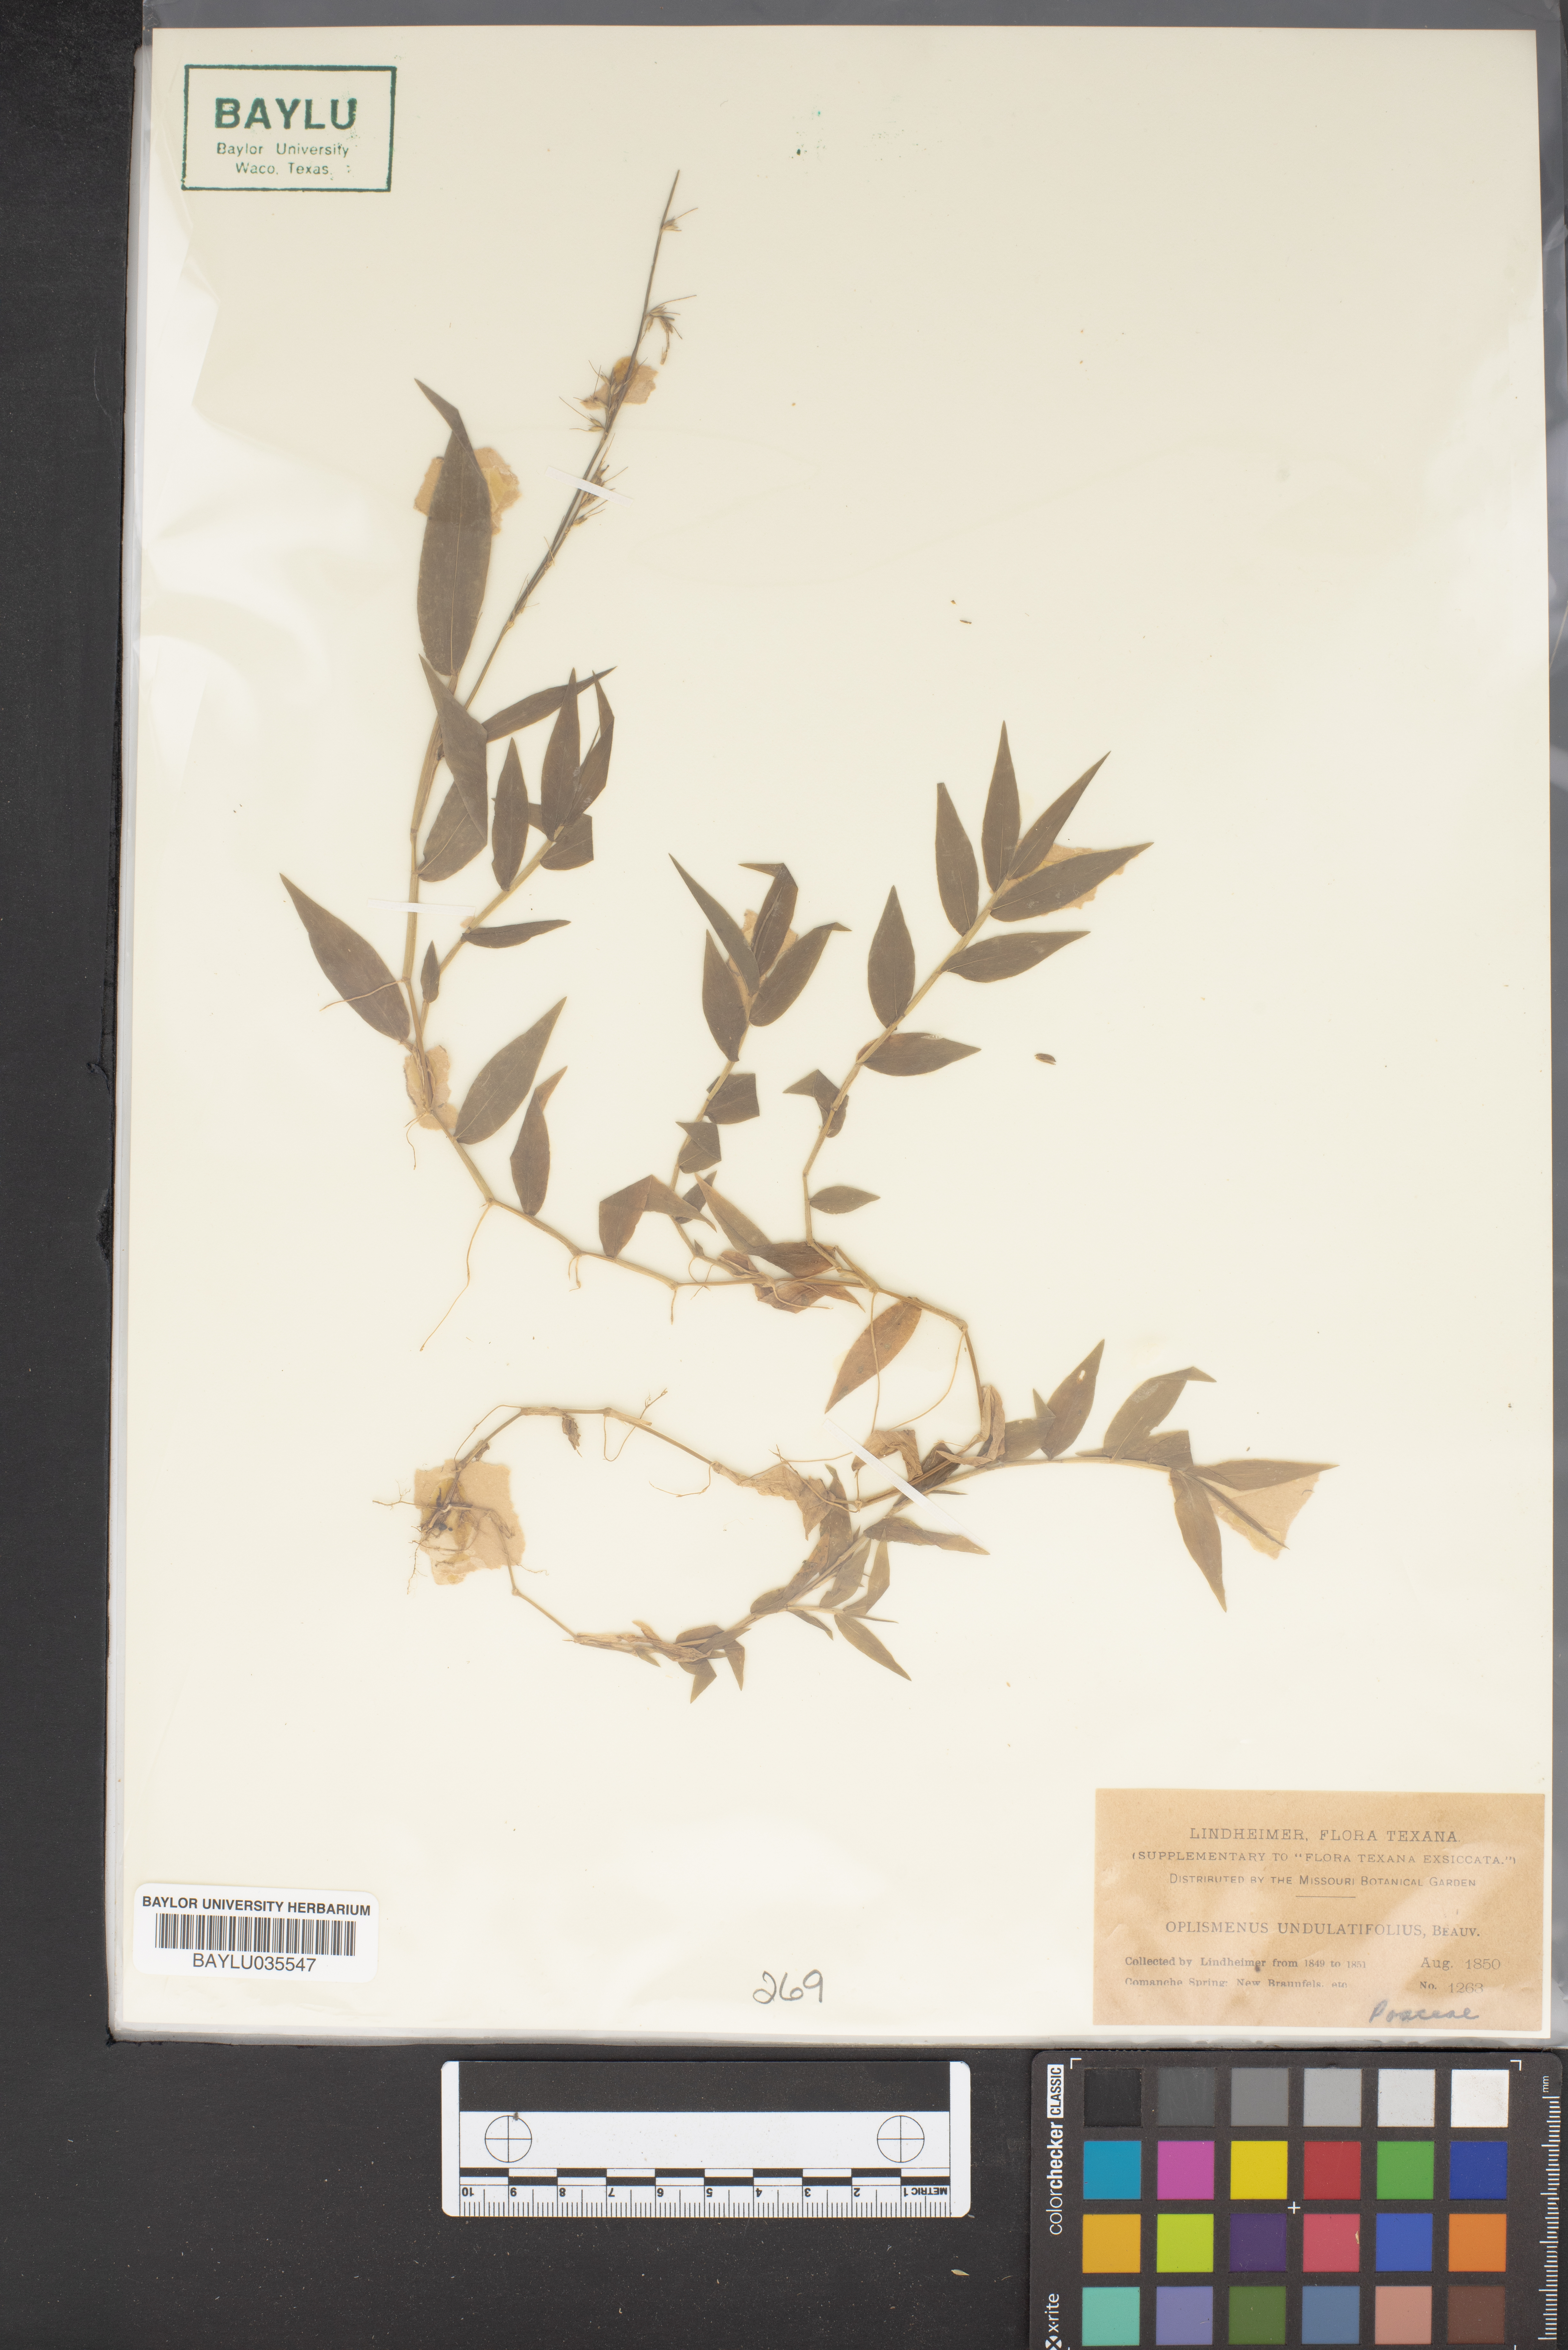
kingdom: Plantae
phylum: Tracheophyta
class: Liliopsida
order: Poales
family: Poaceae
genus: Oplismenus
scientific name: Oplismenus undulatifolius
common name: Wavyleaf basketgrass
